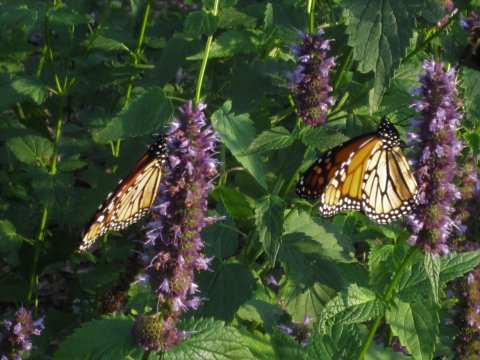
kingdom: Animalia
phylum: Arthropoda
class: Insecta
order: Lepidoptera
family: Nymphalidae
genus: Danaus
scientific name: Danaus plexippus
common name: Monarch
